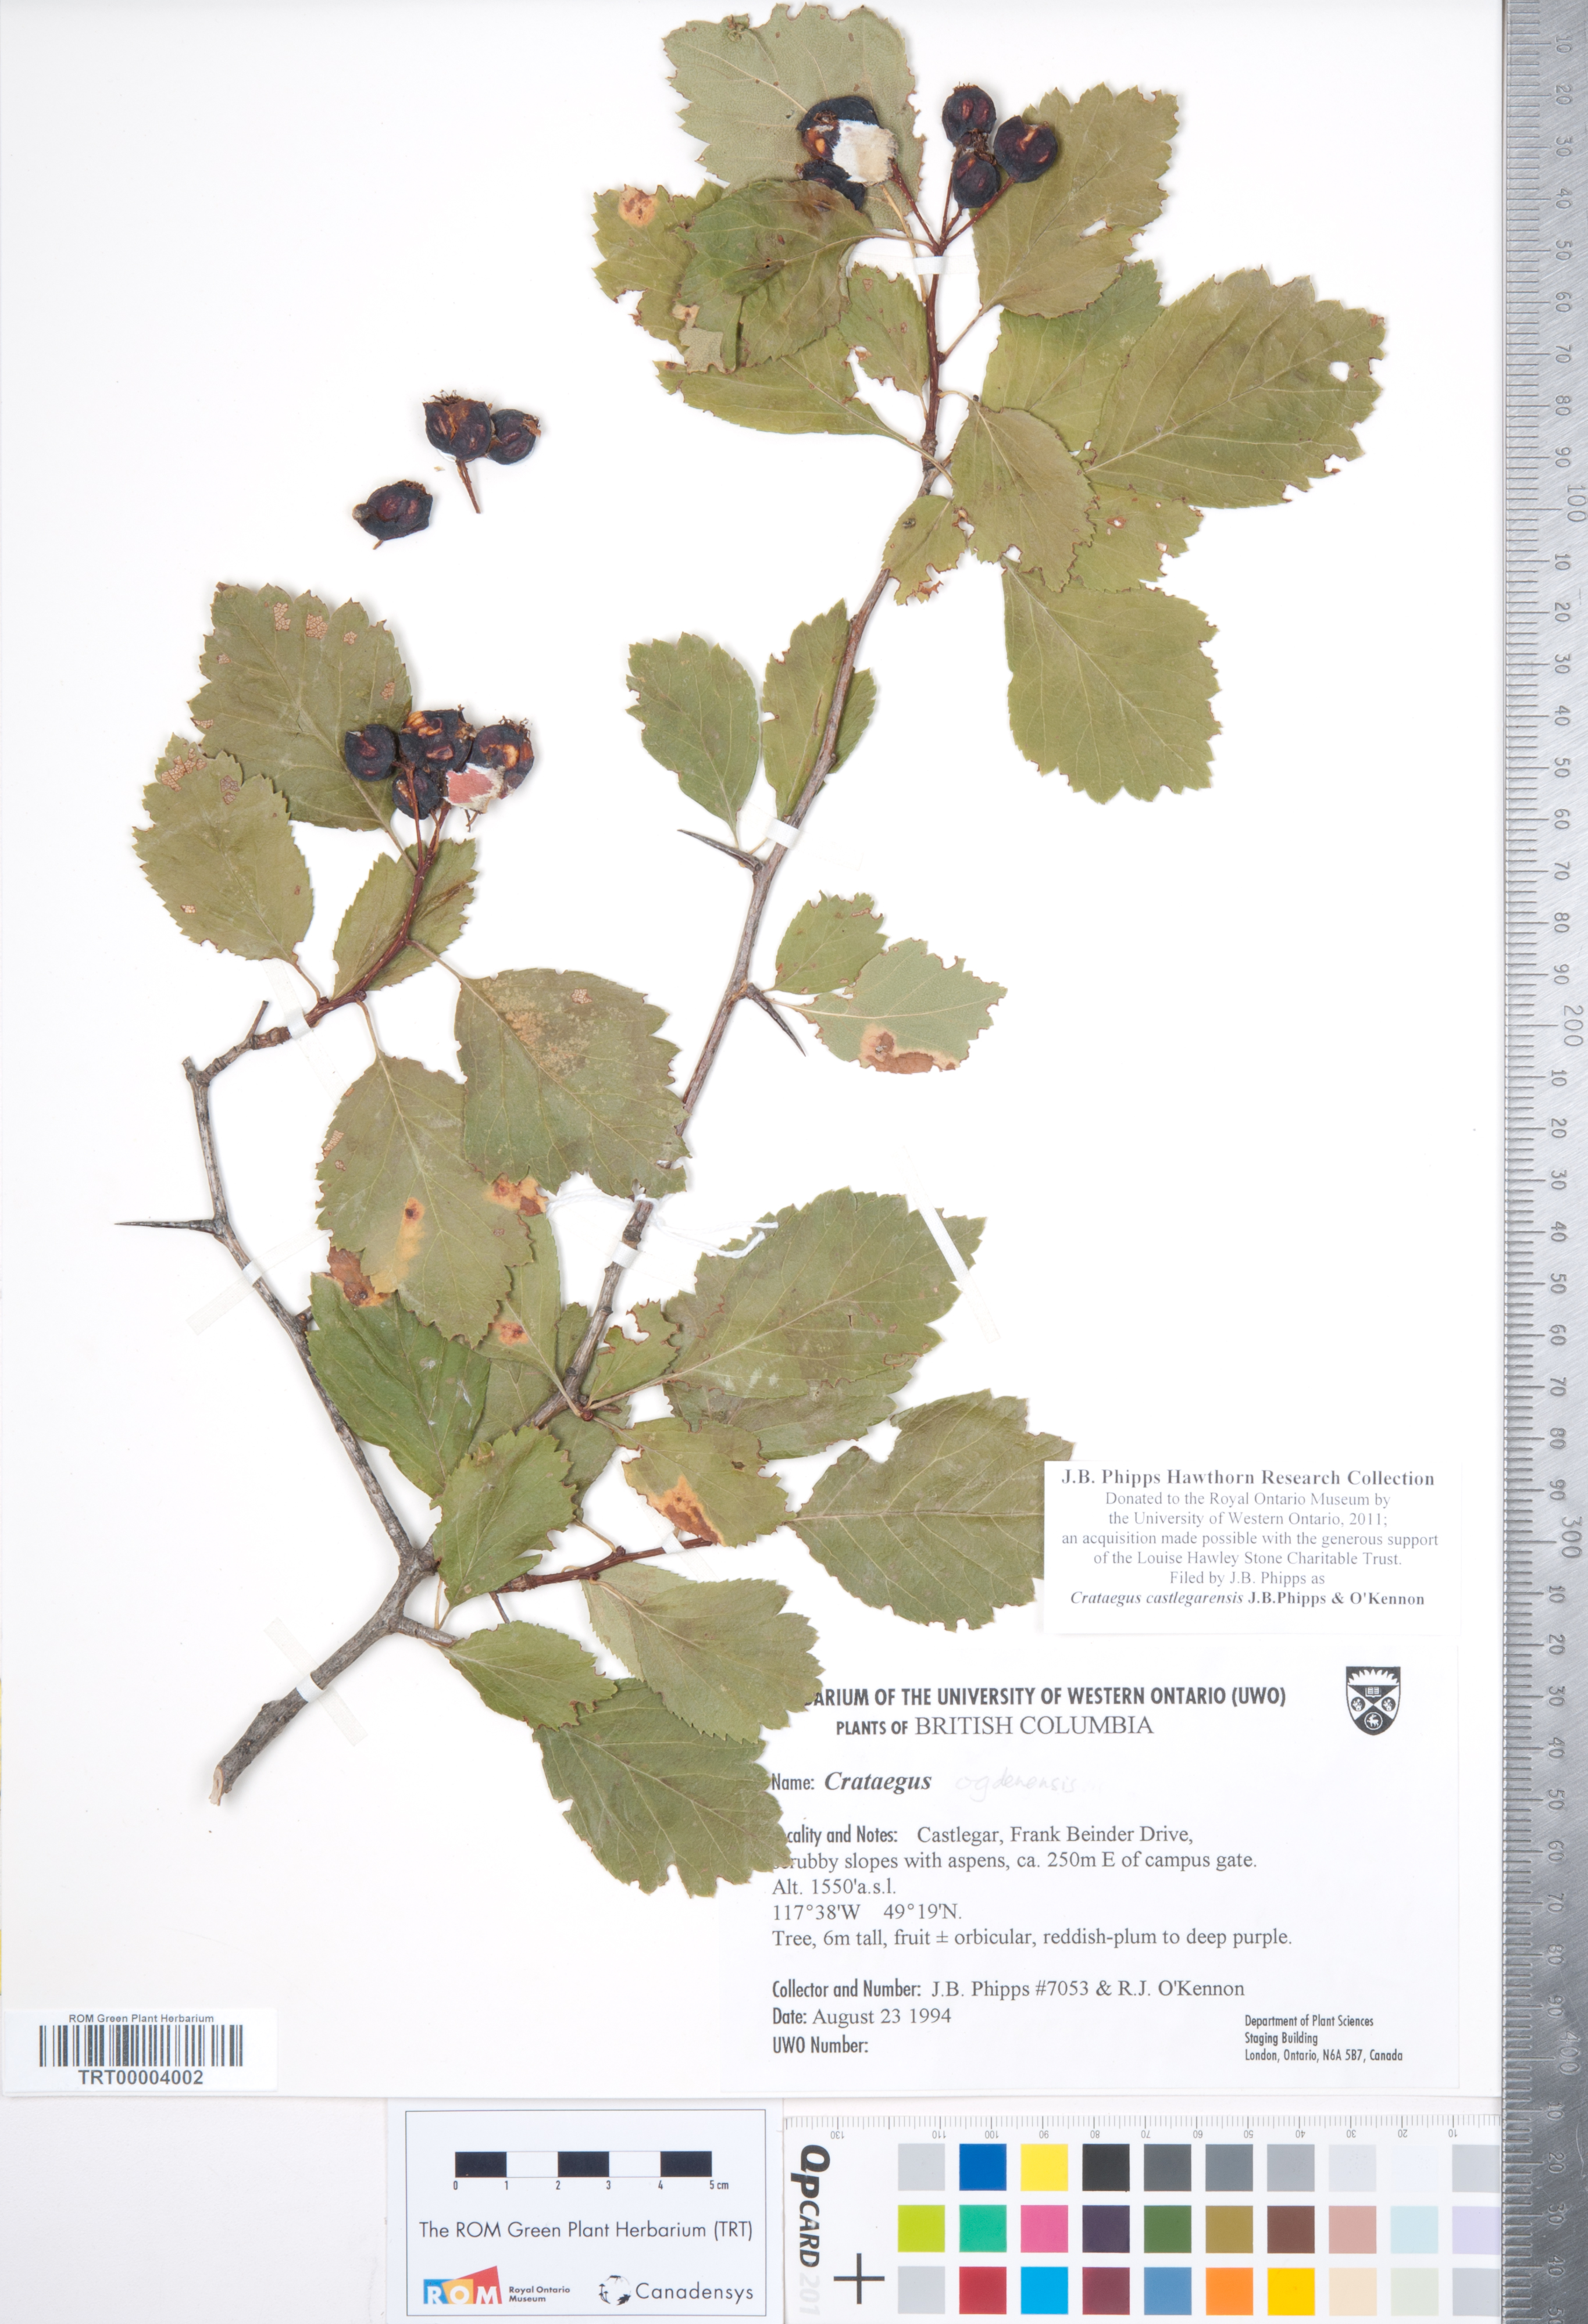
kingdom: Plantae
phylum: Tracheophyta
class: Magnoliopsida
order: Rosales
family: Rosaceae
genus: Crataegus
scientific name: Crataegus castlegarensis
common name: Castlegar hawthorn
